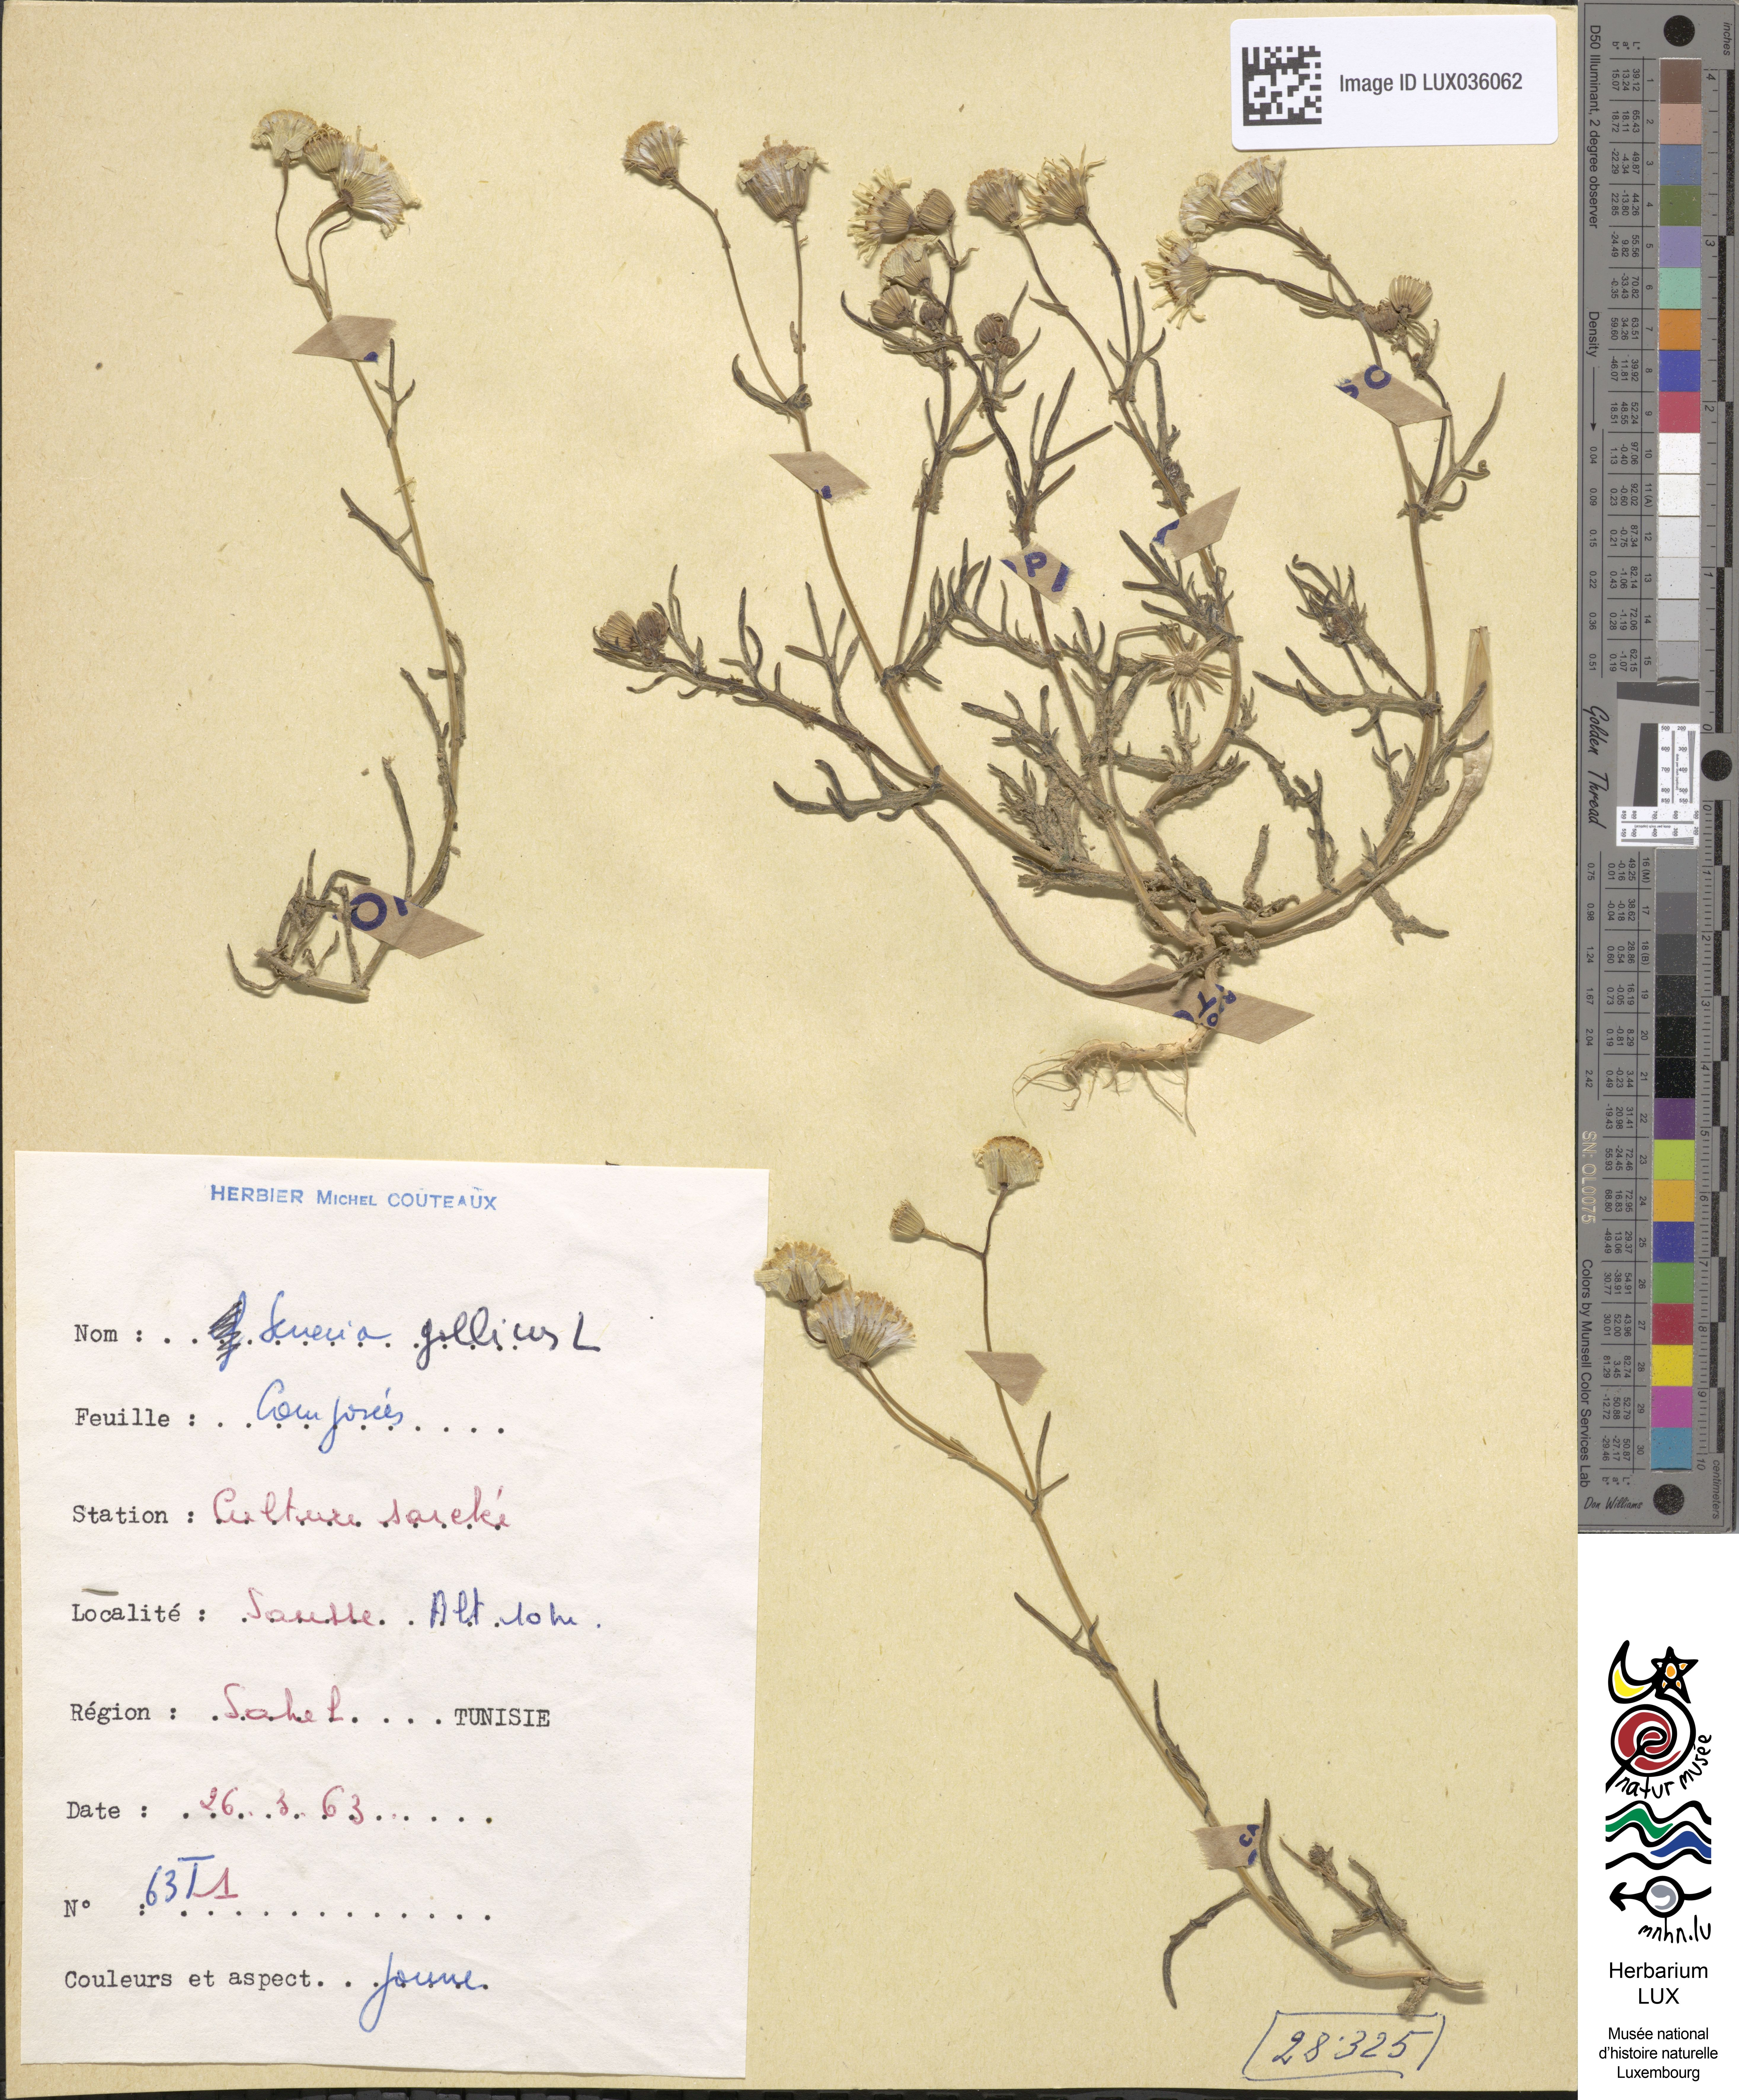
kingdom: Plantae
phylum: Tracheophyta
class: Magnoliopsida
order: Asterales
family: Asteraceae
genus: Senecio
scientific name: Senecio gallicus
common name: French groundsel
